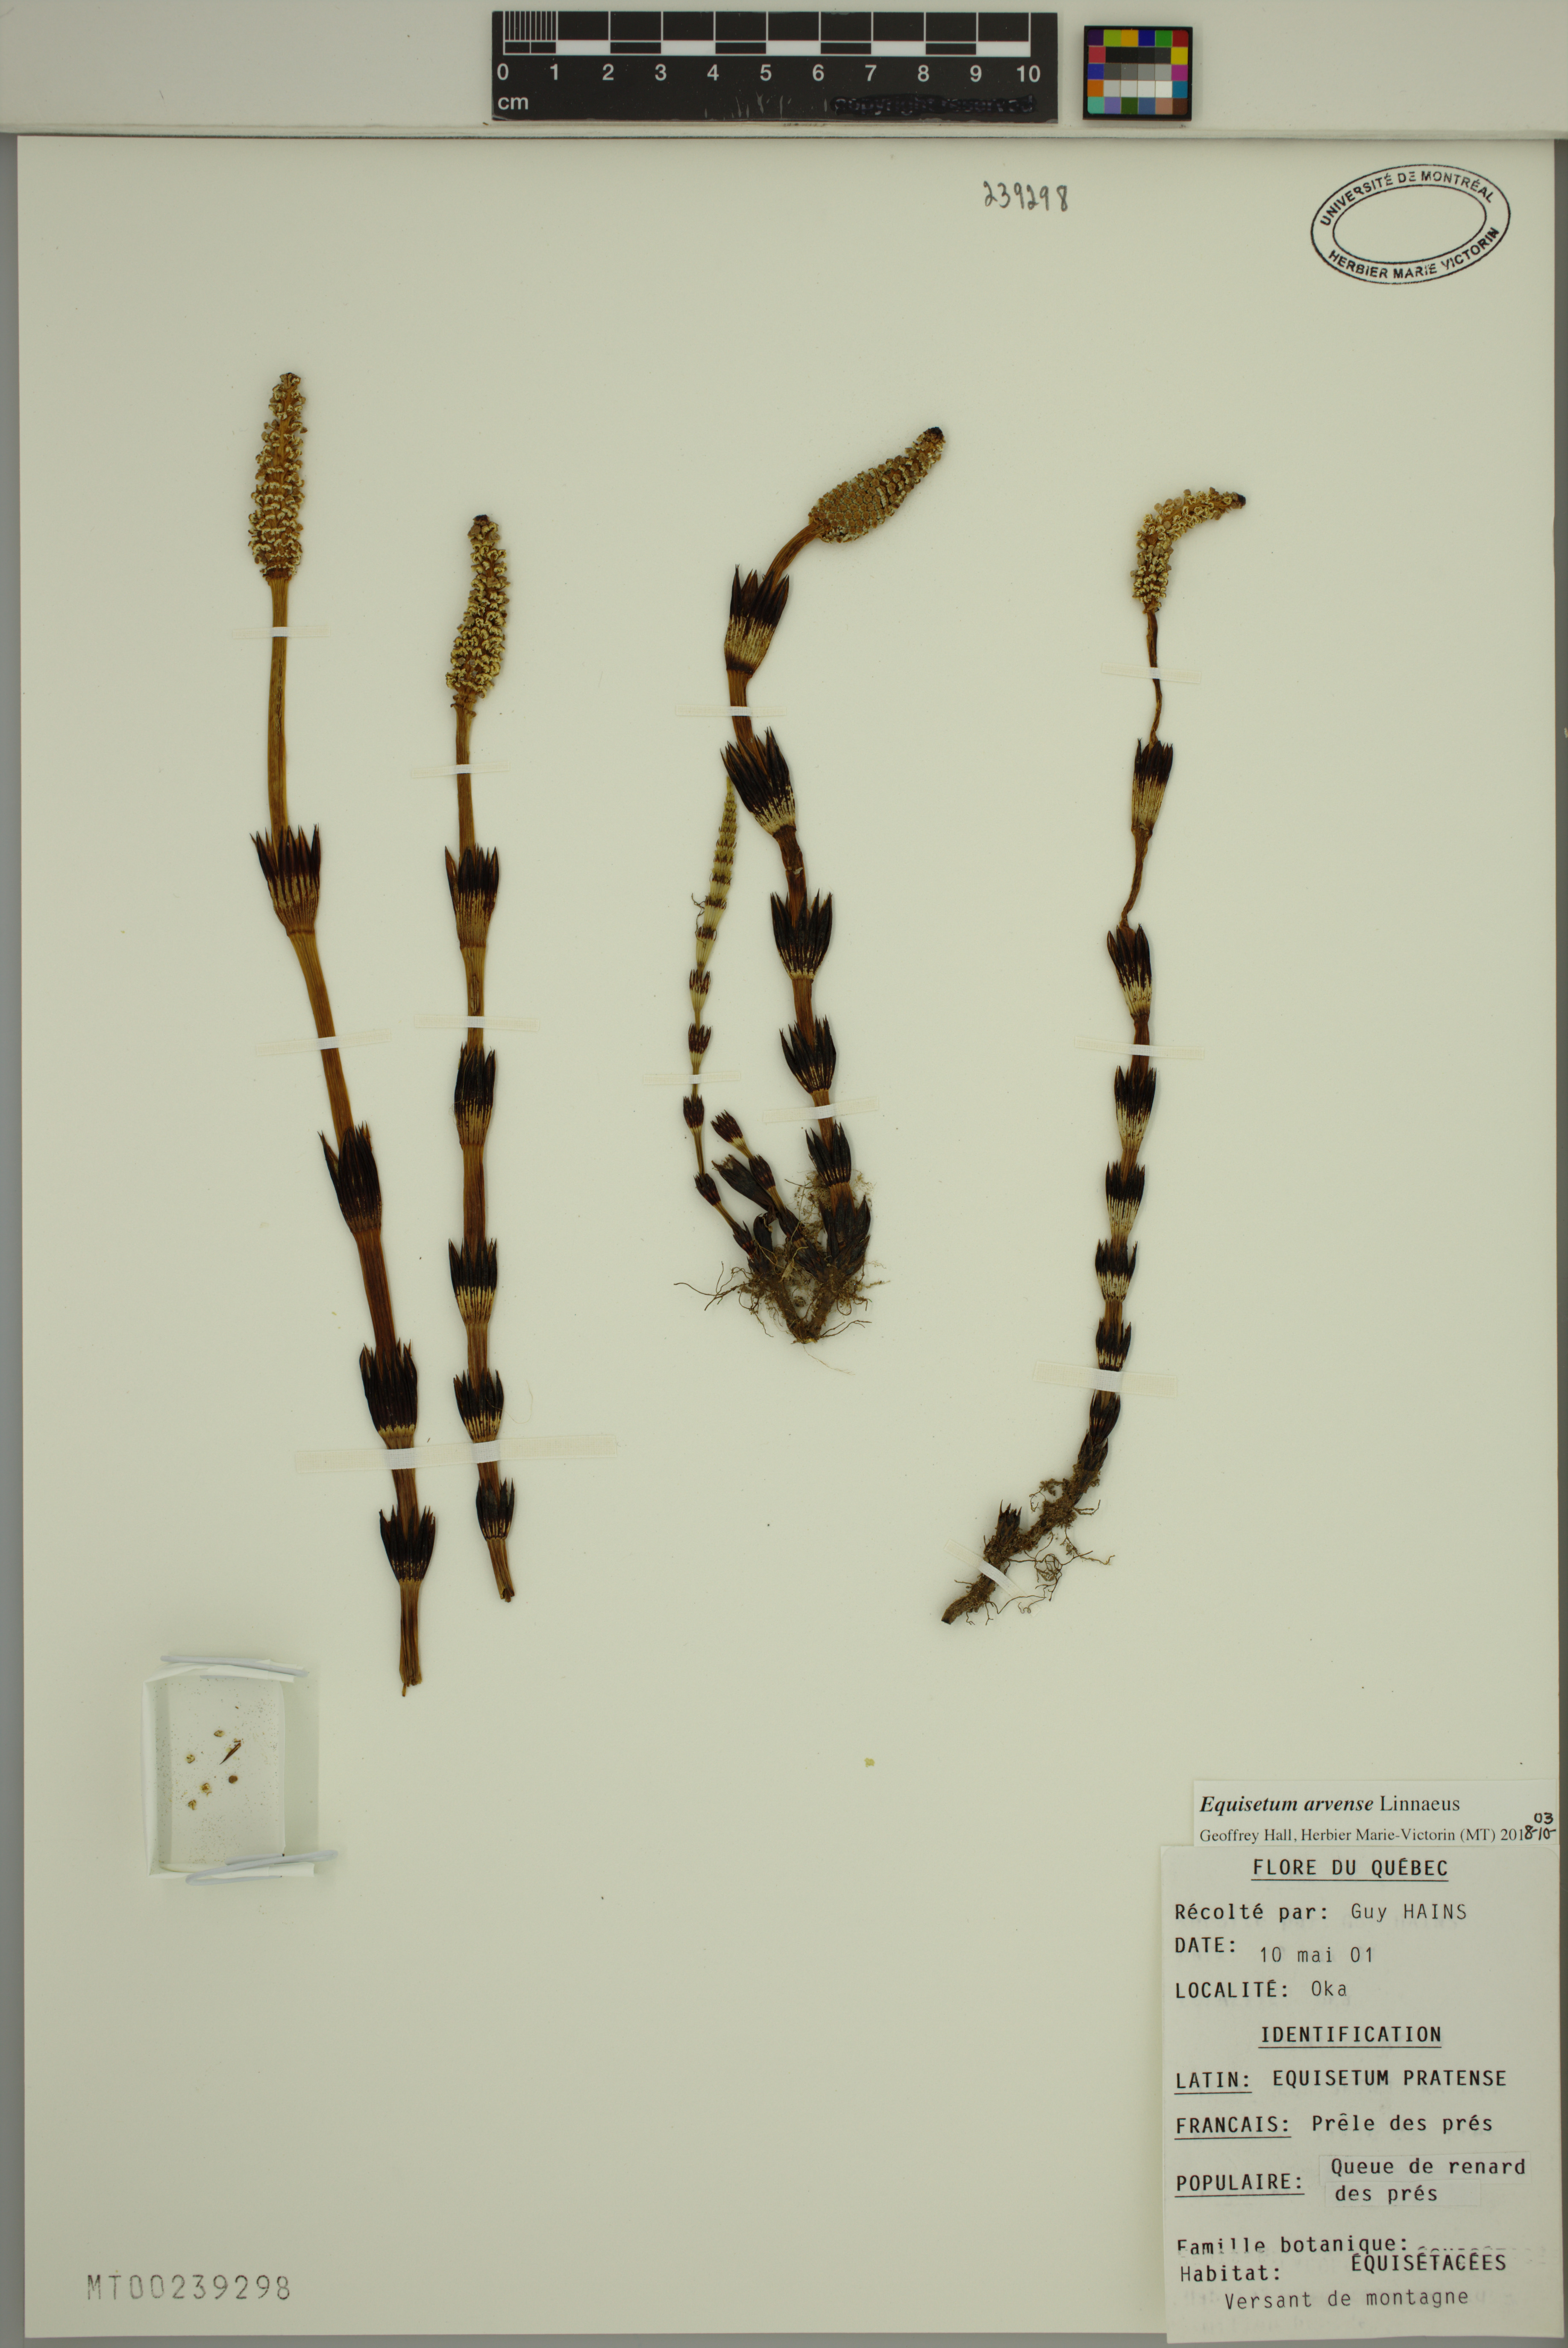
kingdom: Plantae
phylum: Tracheophyta
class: Polypodiopsida
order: Equisetales
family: Equisetaceae
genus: Equisetum
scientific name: Equisetum arvense
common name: Field horsetail
